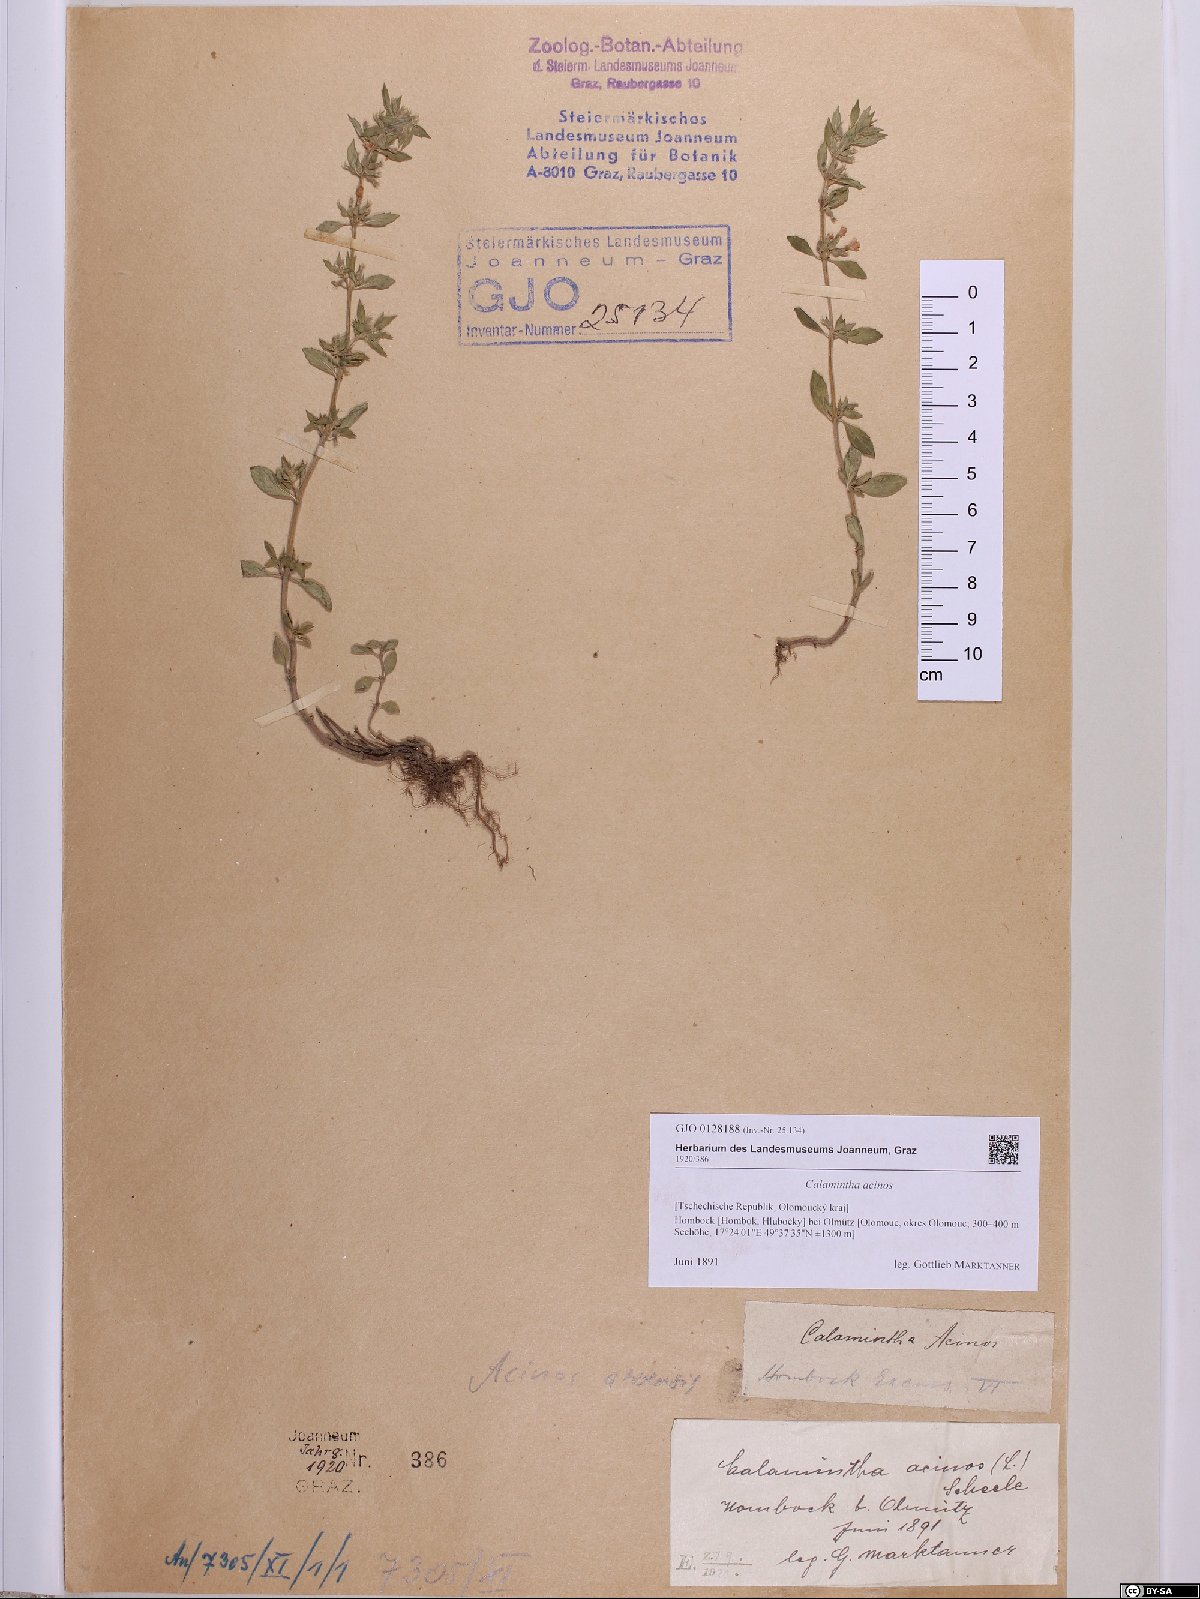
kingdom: Plantae
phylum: Tracheophyta
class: Magnoliopsida
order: Lamiales
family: Lamiaceae
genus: Clinopodium
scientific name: Clinopodium acinos
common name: Basil thyme
